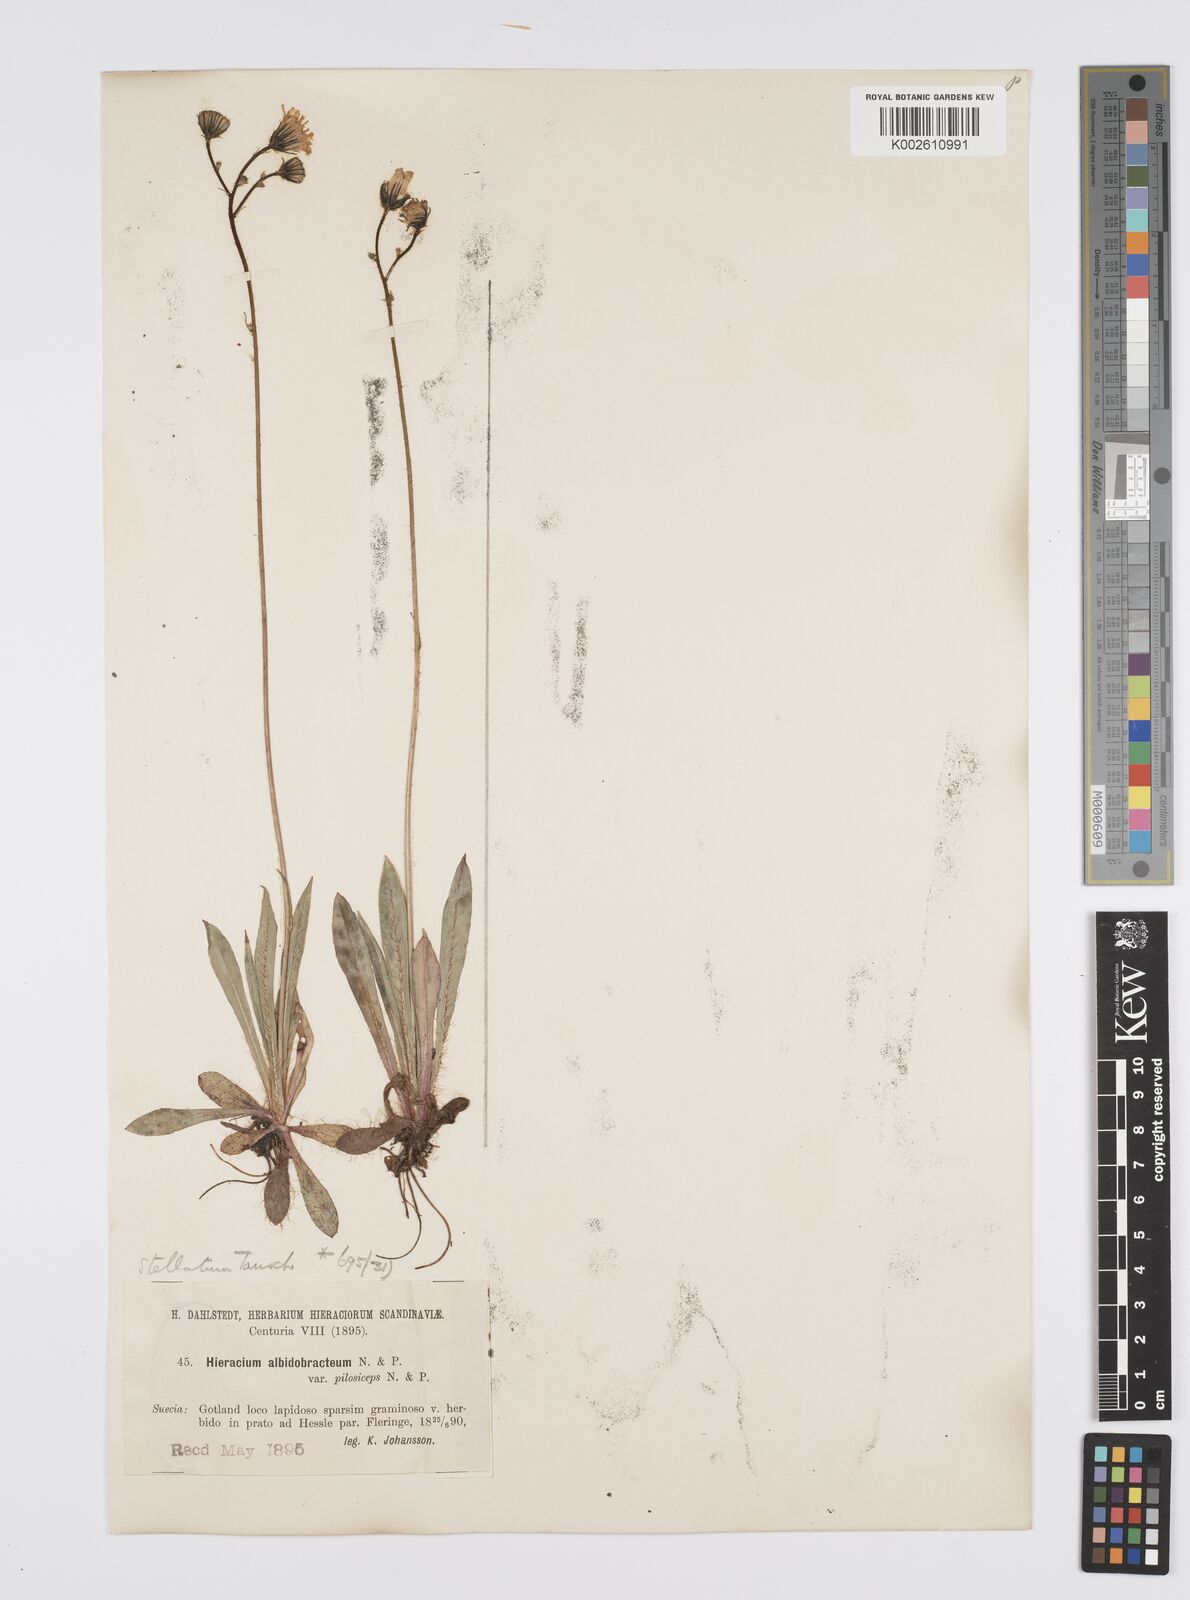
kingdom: Plantae
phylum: Tracheophyta
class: Magnoliopsida
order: Asterales
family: Asteraceae
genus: Pilosella
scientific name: Pilosella piloselloides
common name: Glaucous king-devil
